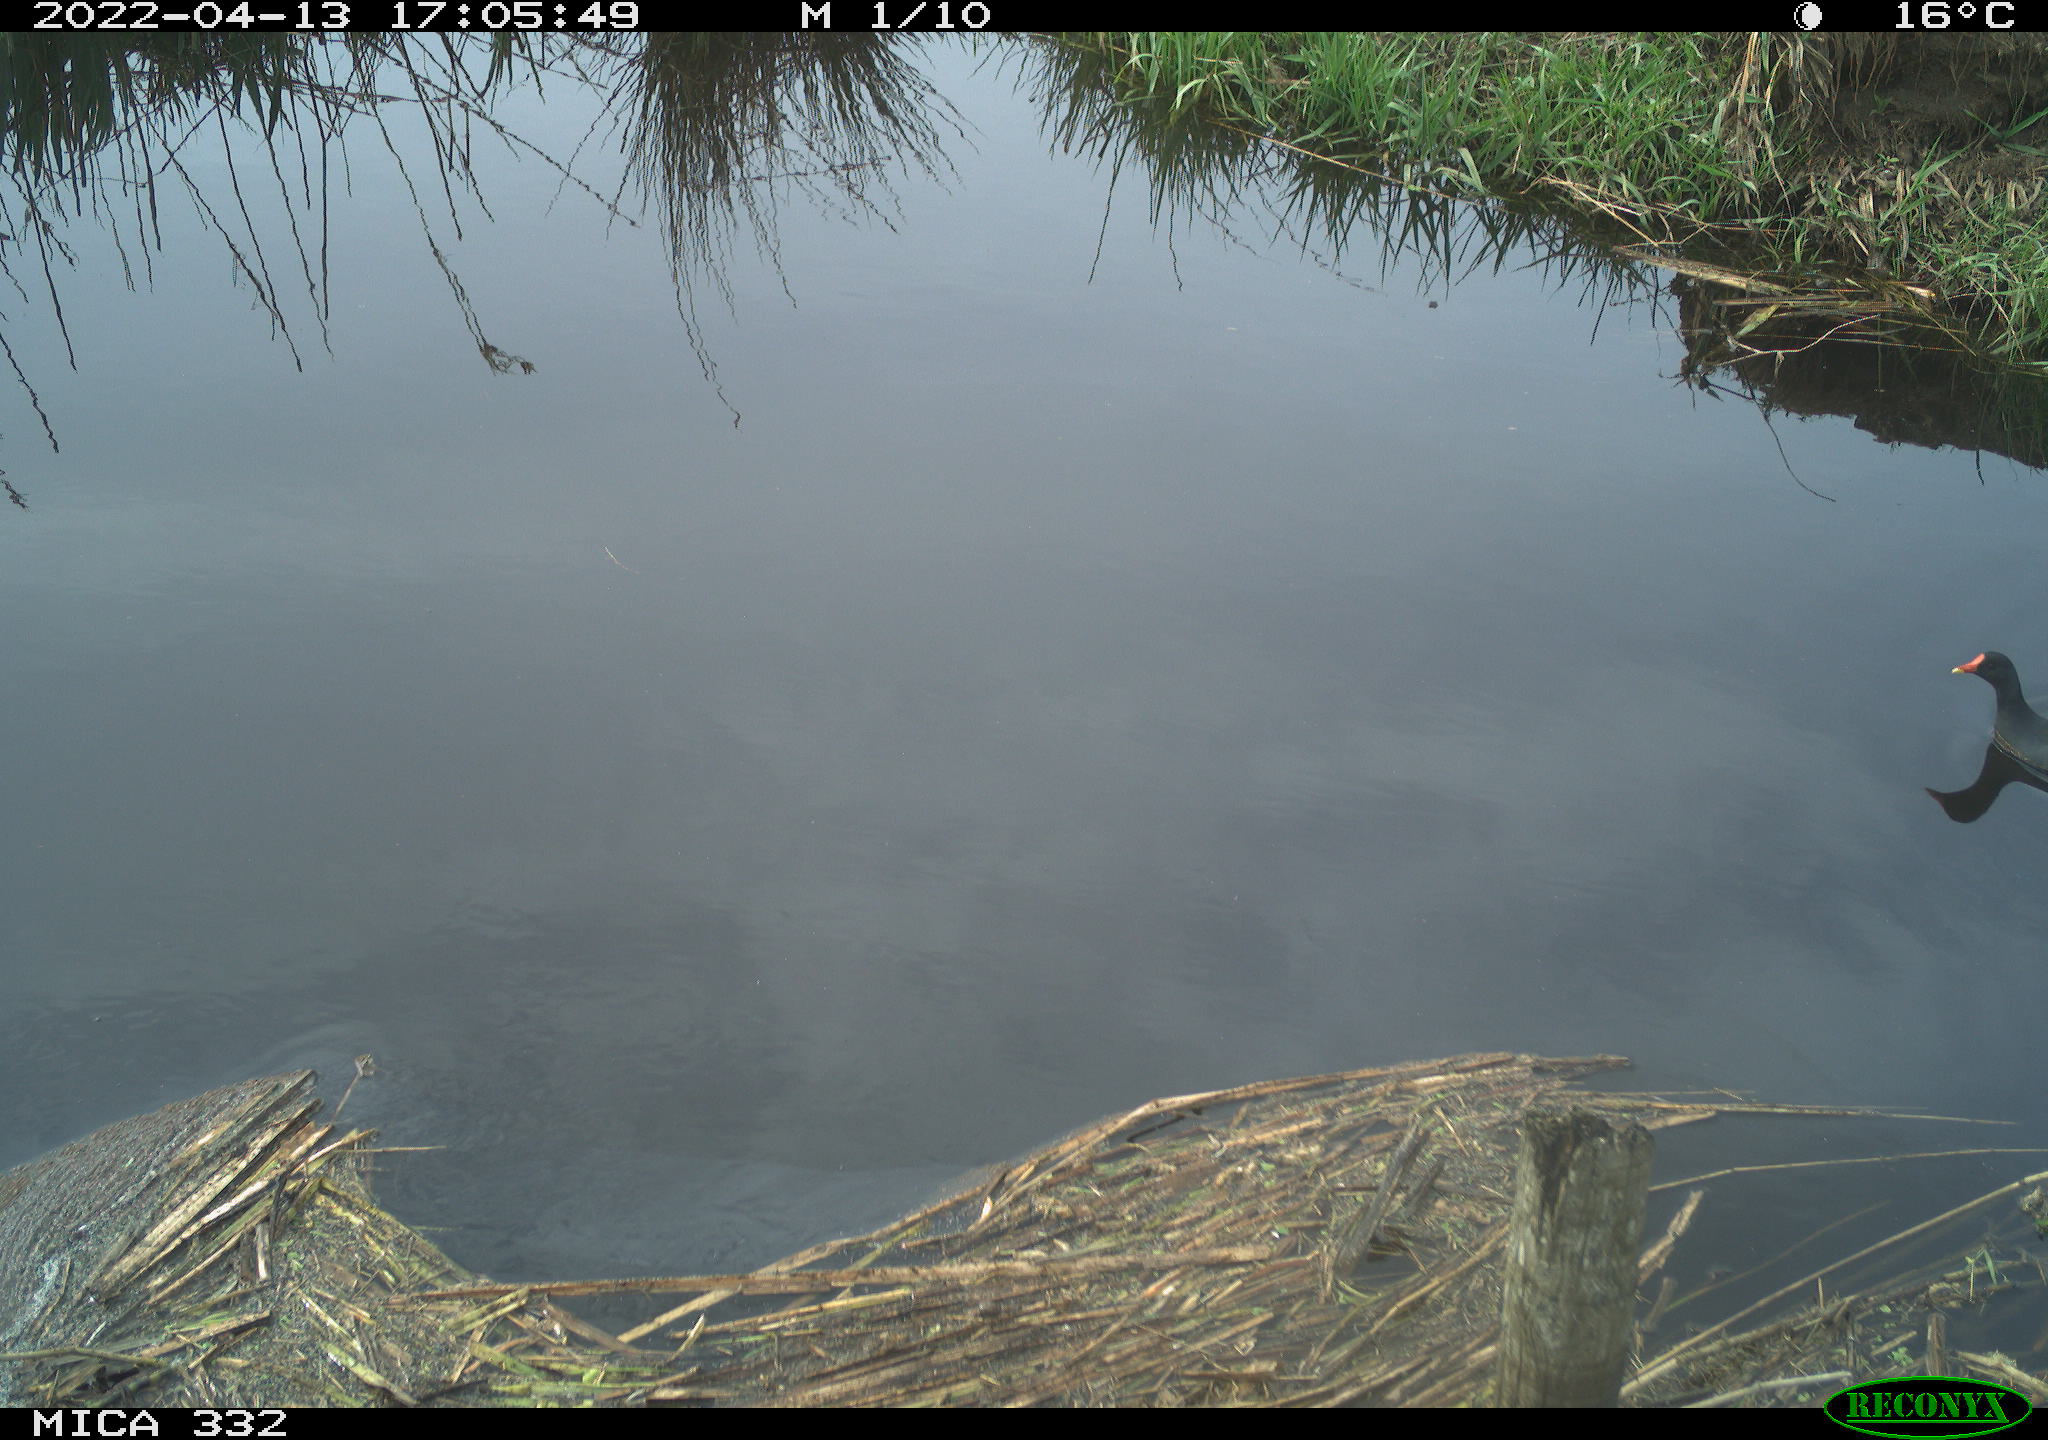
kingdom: Animalia
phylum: Chordata
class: Aves
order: Gruiformes
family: Rallidae
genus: Gallinula
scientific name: Gallinula chloropus
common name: Common moorhen
